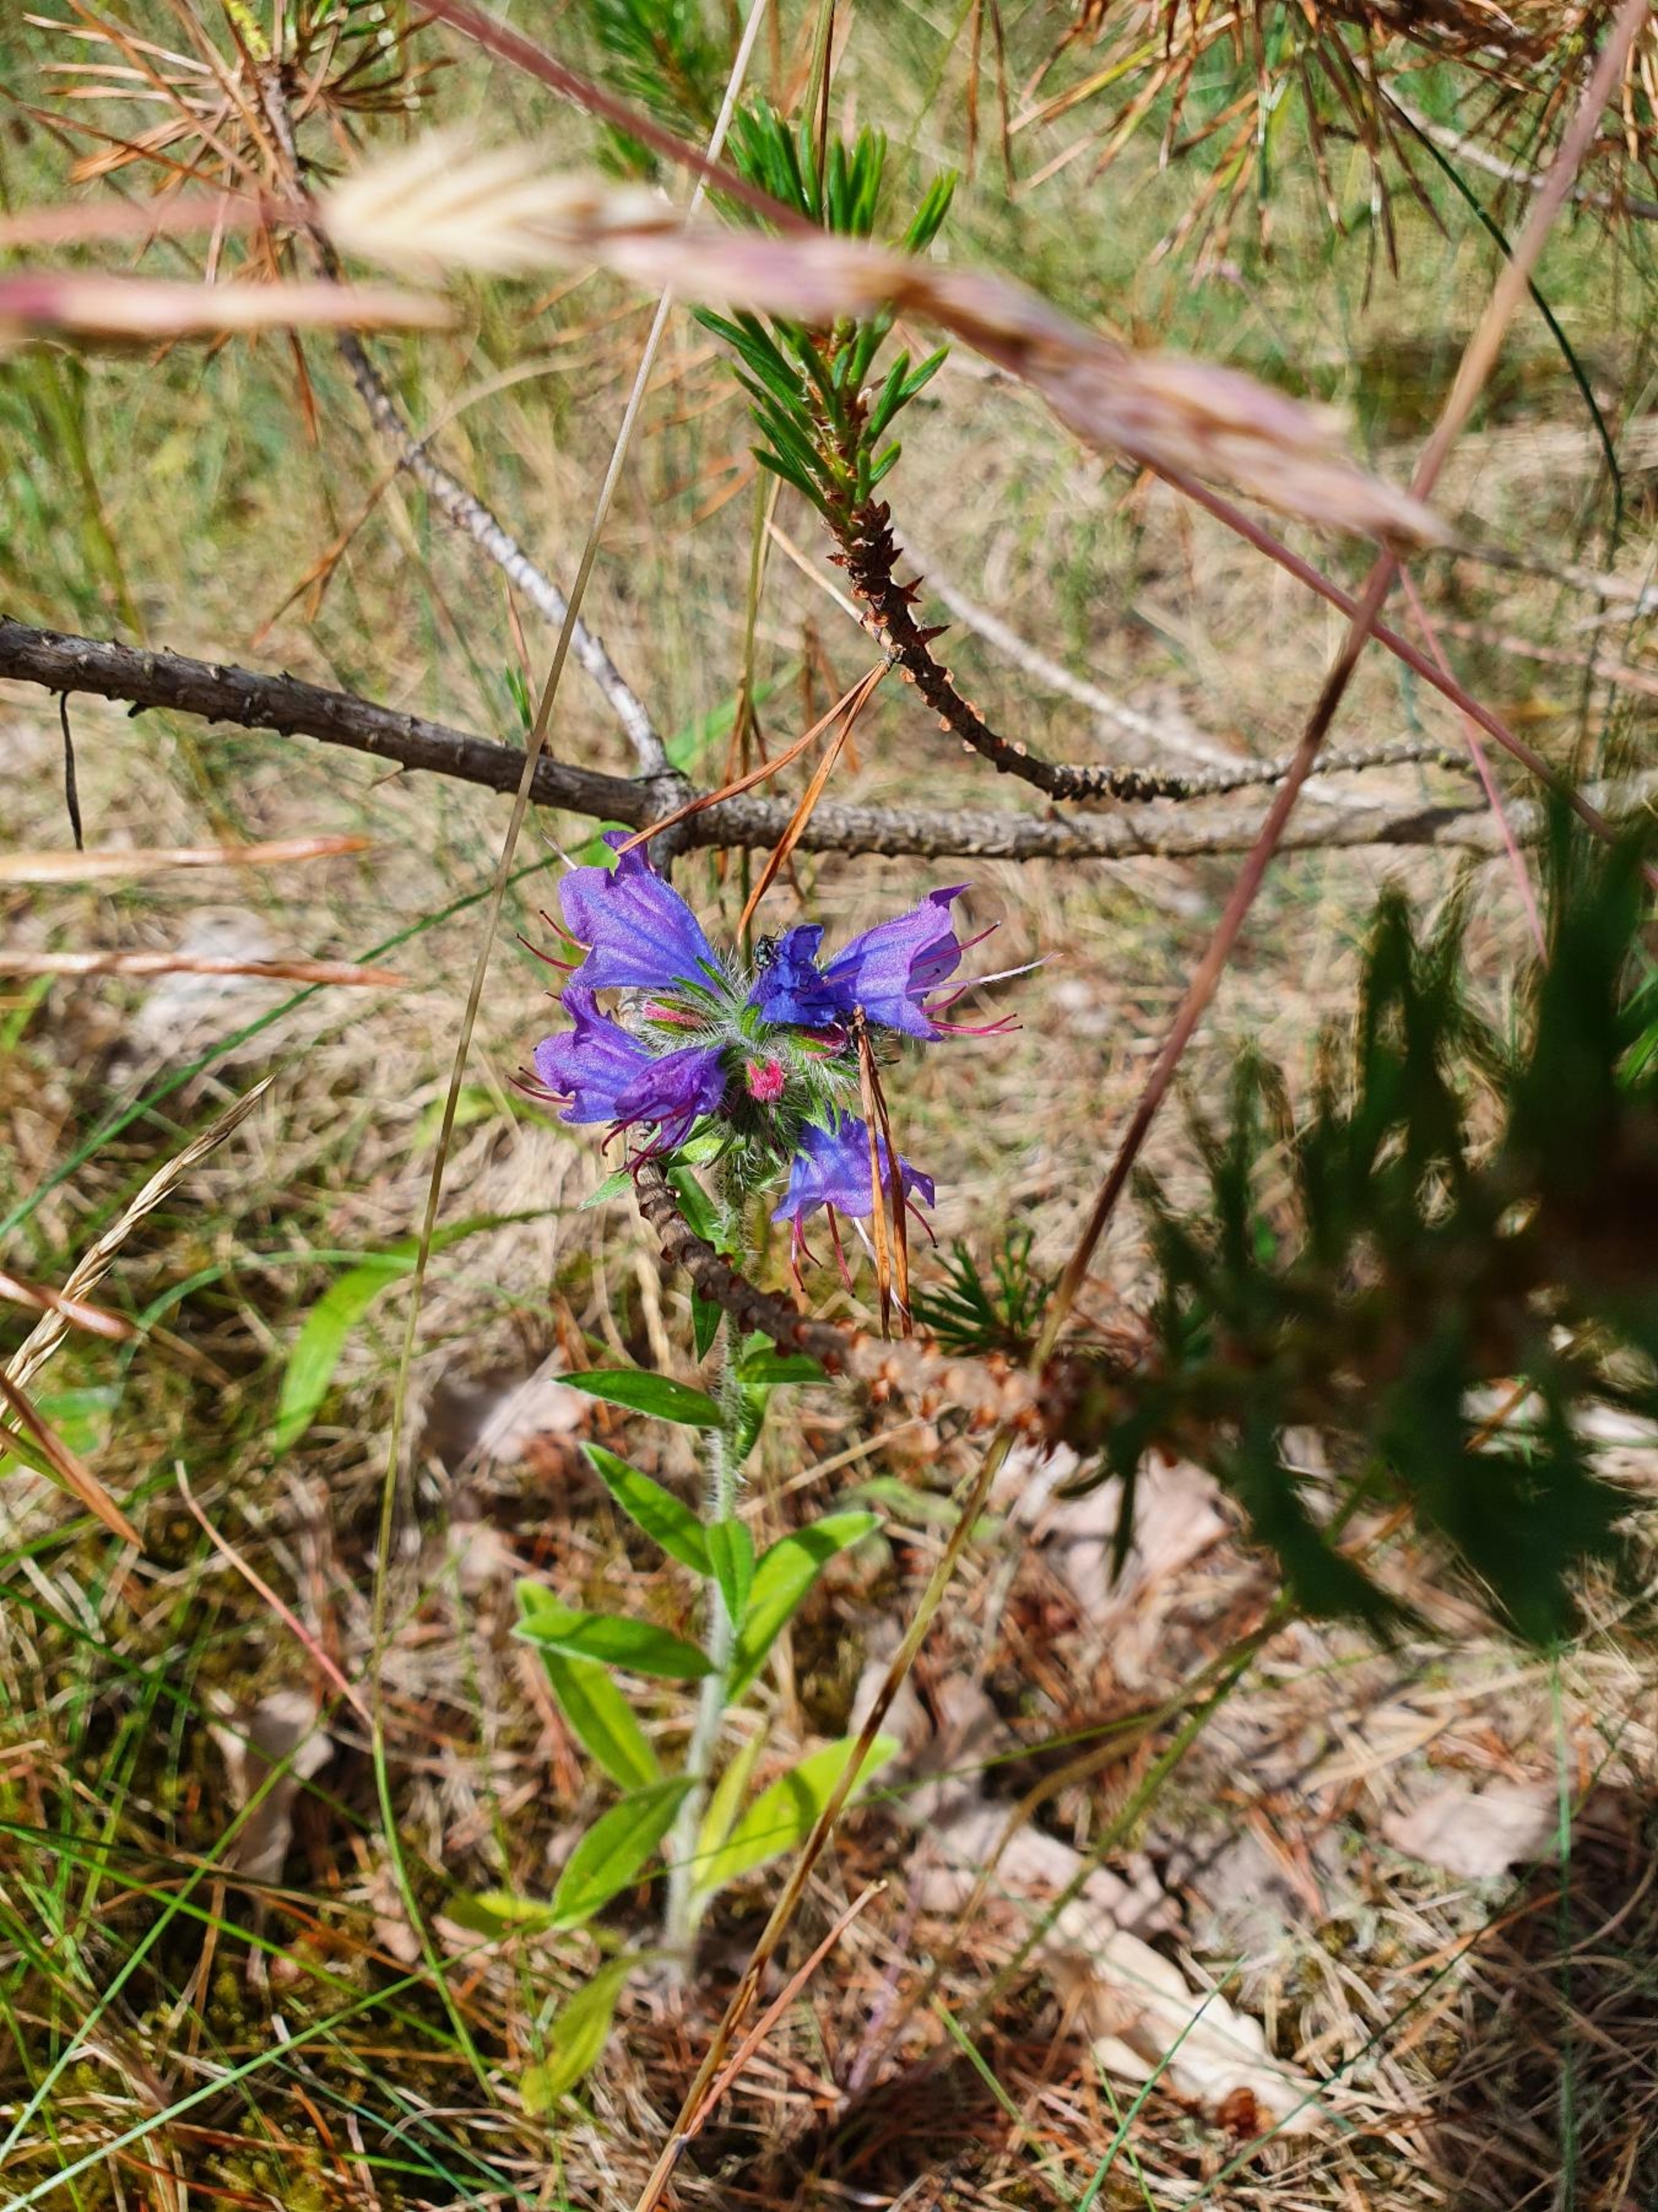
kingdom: Plantae
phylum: Tracheophyta
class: Magnoliopsida
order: Boraginales
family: Boraginaceae
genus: Echium
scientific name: Echium vulgare
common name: Slangehoved
